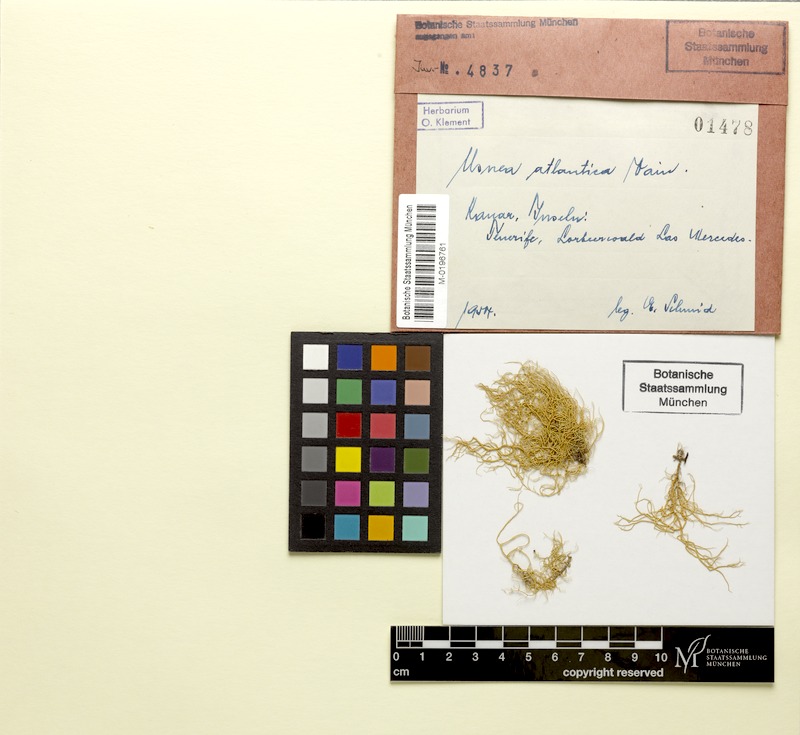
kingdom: Fungi
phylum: Ascomycota
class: Lecanoromycetes
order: Lecanorales
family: Parmeliaceae
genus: Usnea
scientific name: Usnea atlantica
